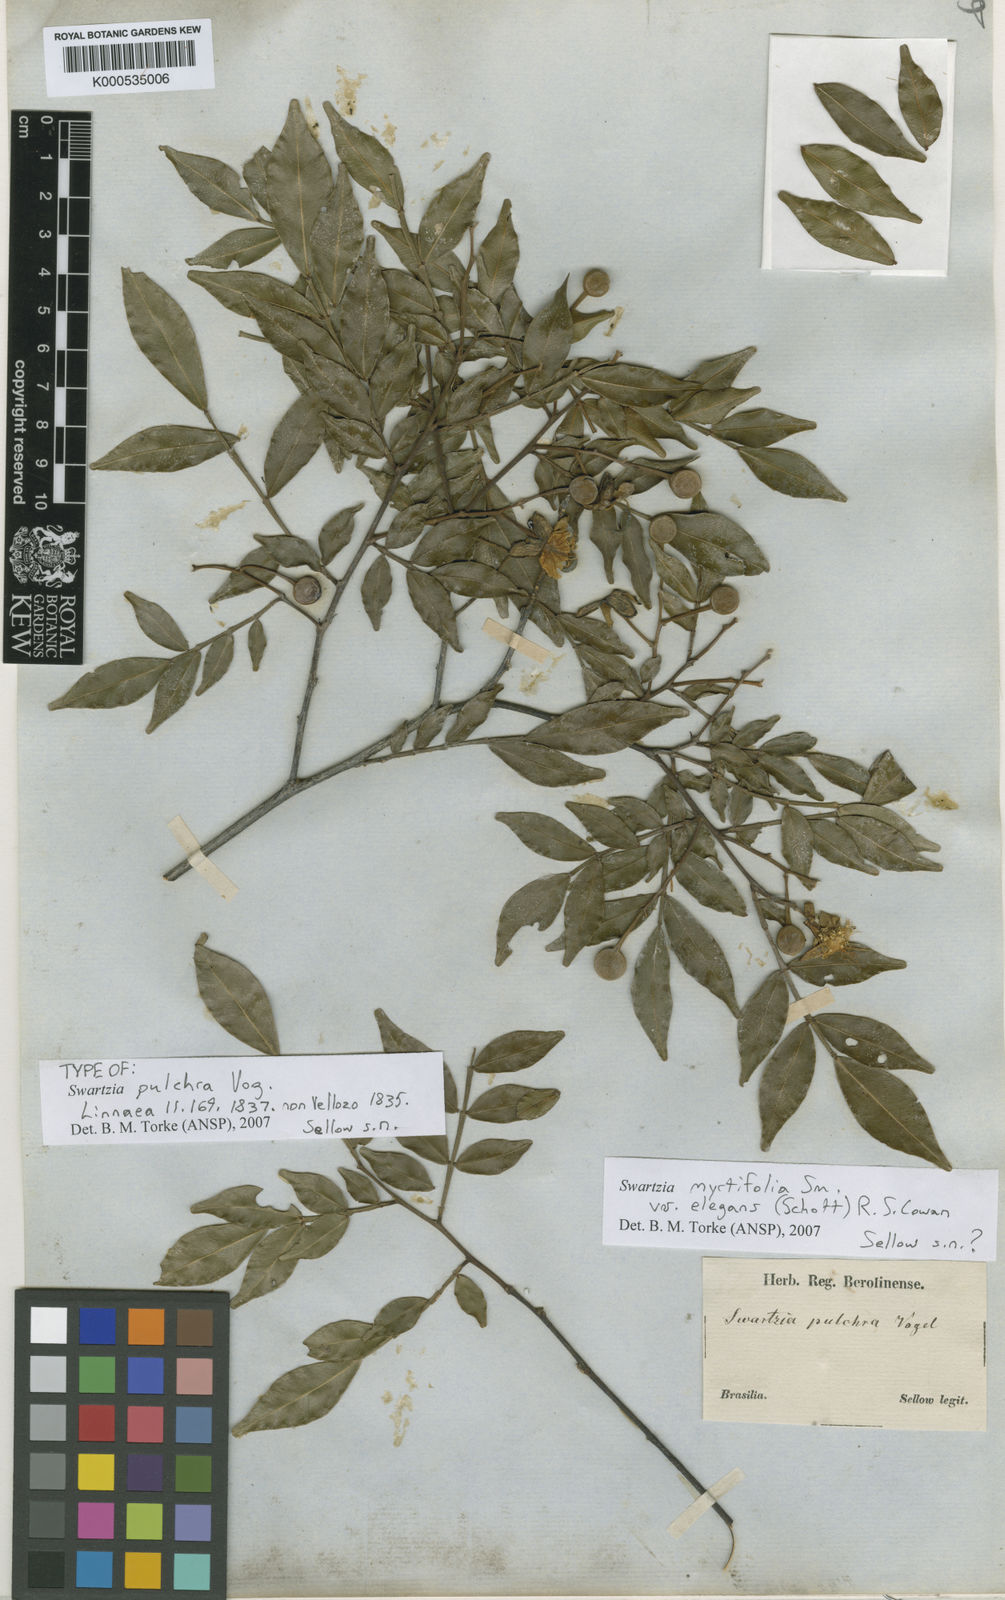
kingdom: Plantae
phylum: Tracheophyta
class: Magnoliopsida
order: Fabales
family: Fabaceae
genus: Swartzia
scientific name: Swartzia myrtifolia
